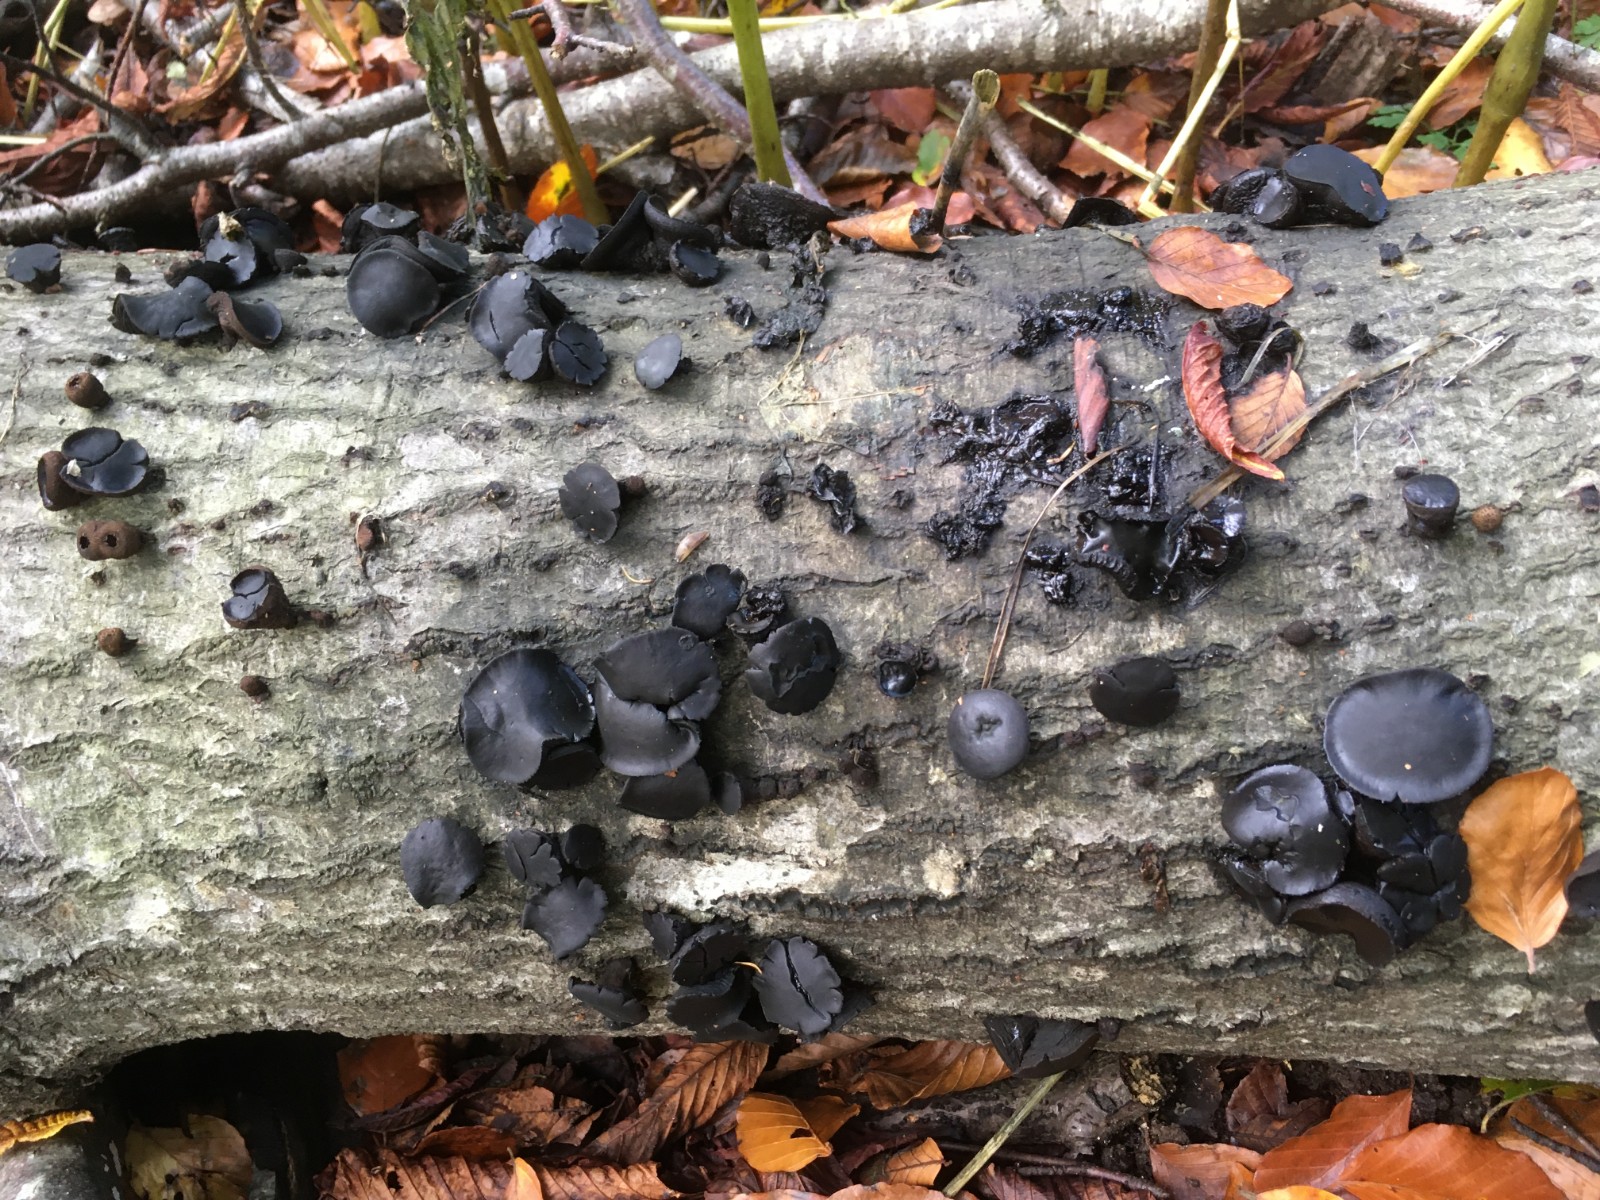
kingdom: Fungi
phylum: Ascomycota
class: Leotiomycetes
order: Phacidiales
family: Phacidiaceae
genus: Bulgaria
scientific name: Bulgaria inquinans
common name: afsmittende topsvamp
